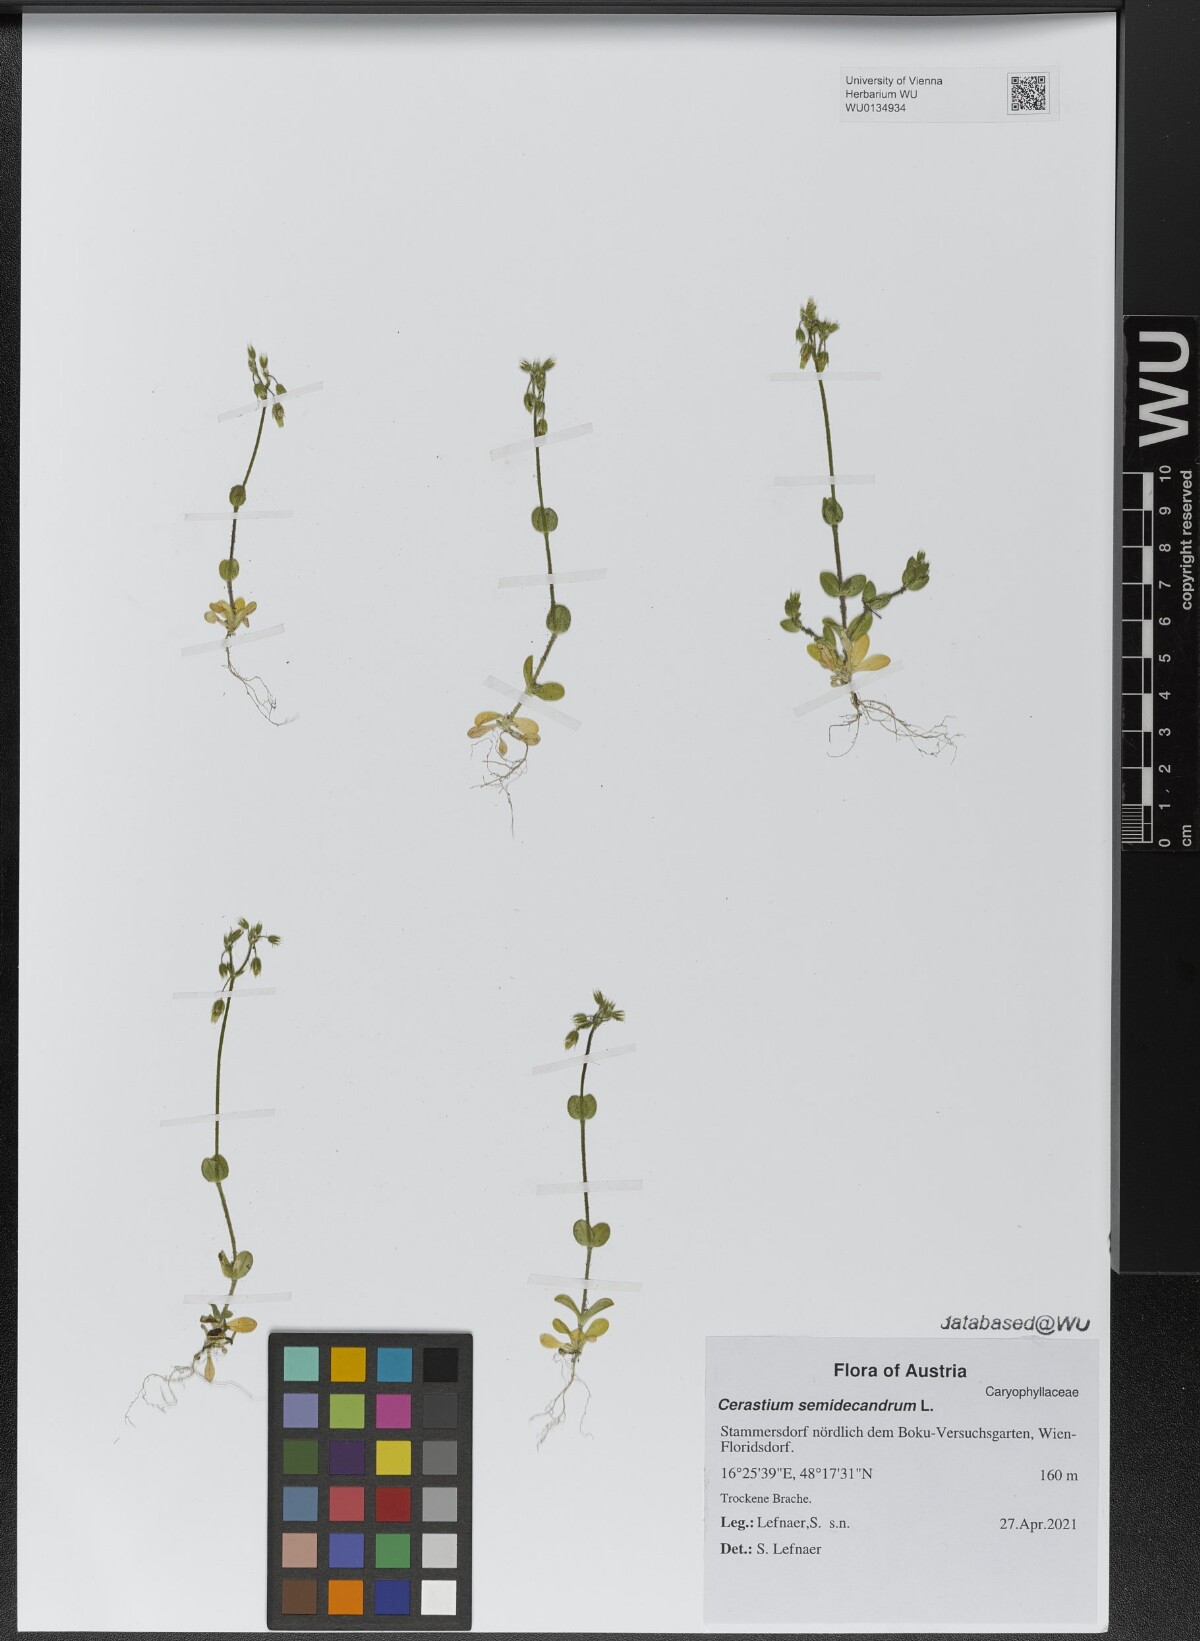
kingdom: Plantae
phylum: Tracheophyta
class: Magnoliopsida
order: Caryophyllales
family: Caryophyllaceae
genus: Cerastium
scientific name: Cerastium semidecandrum
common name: Little mouse-ear
